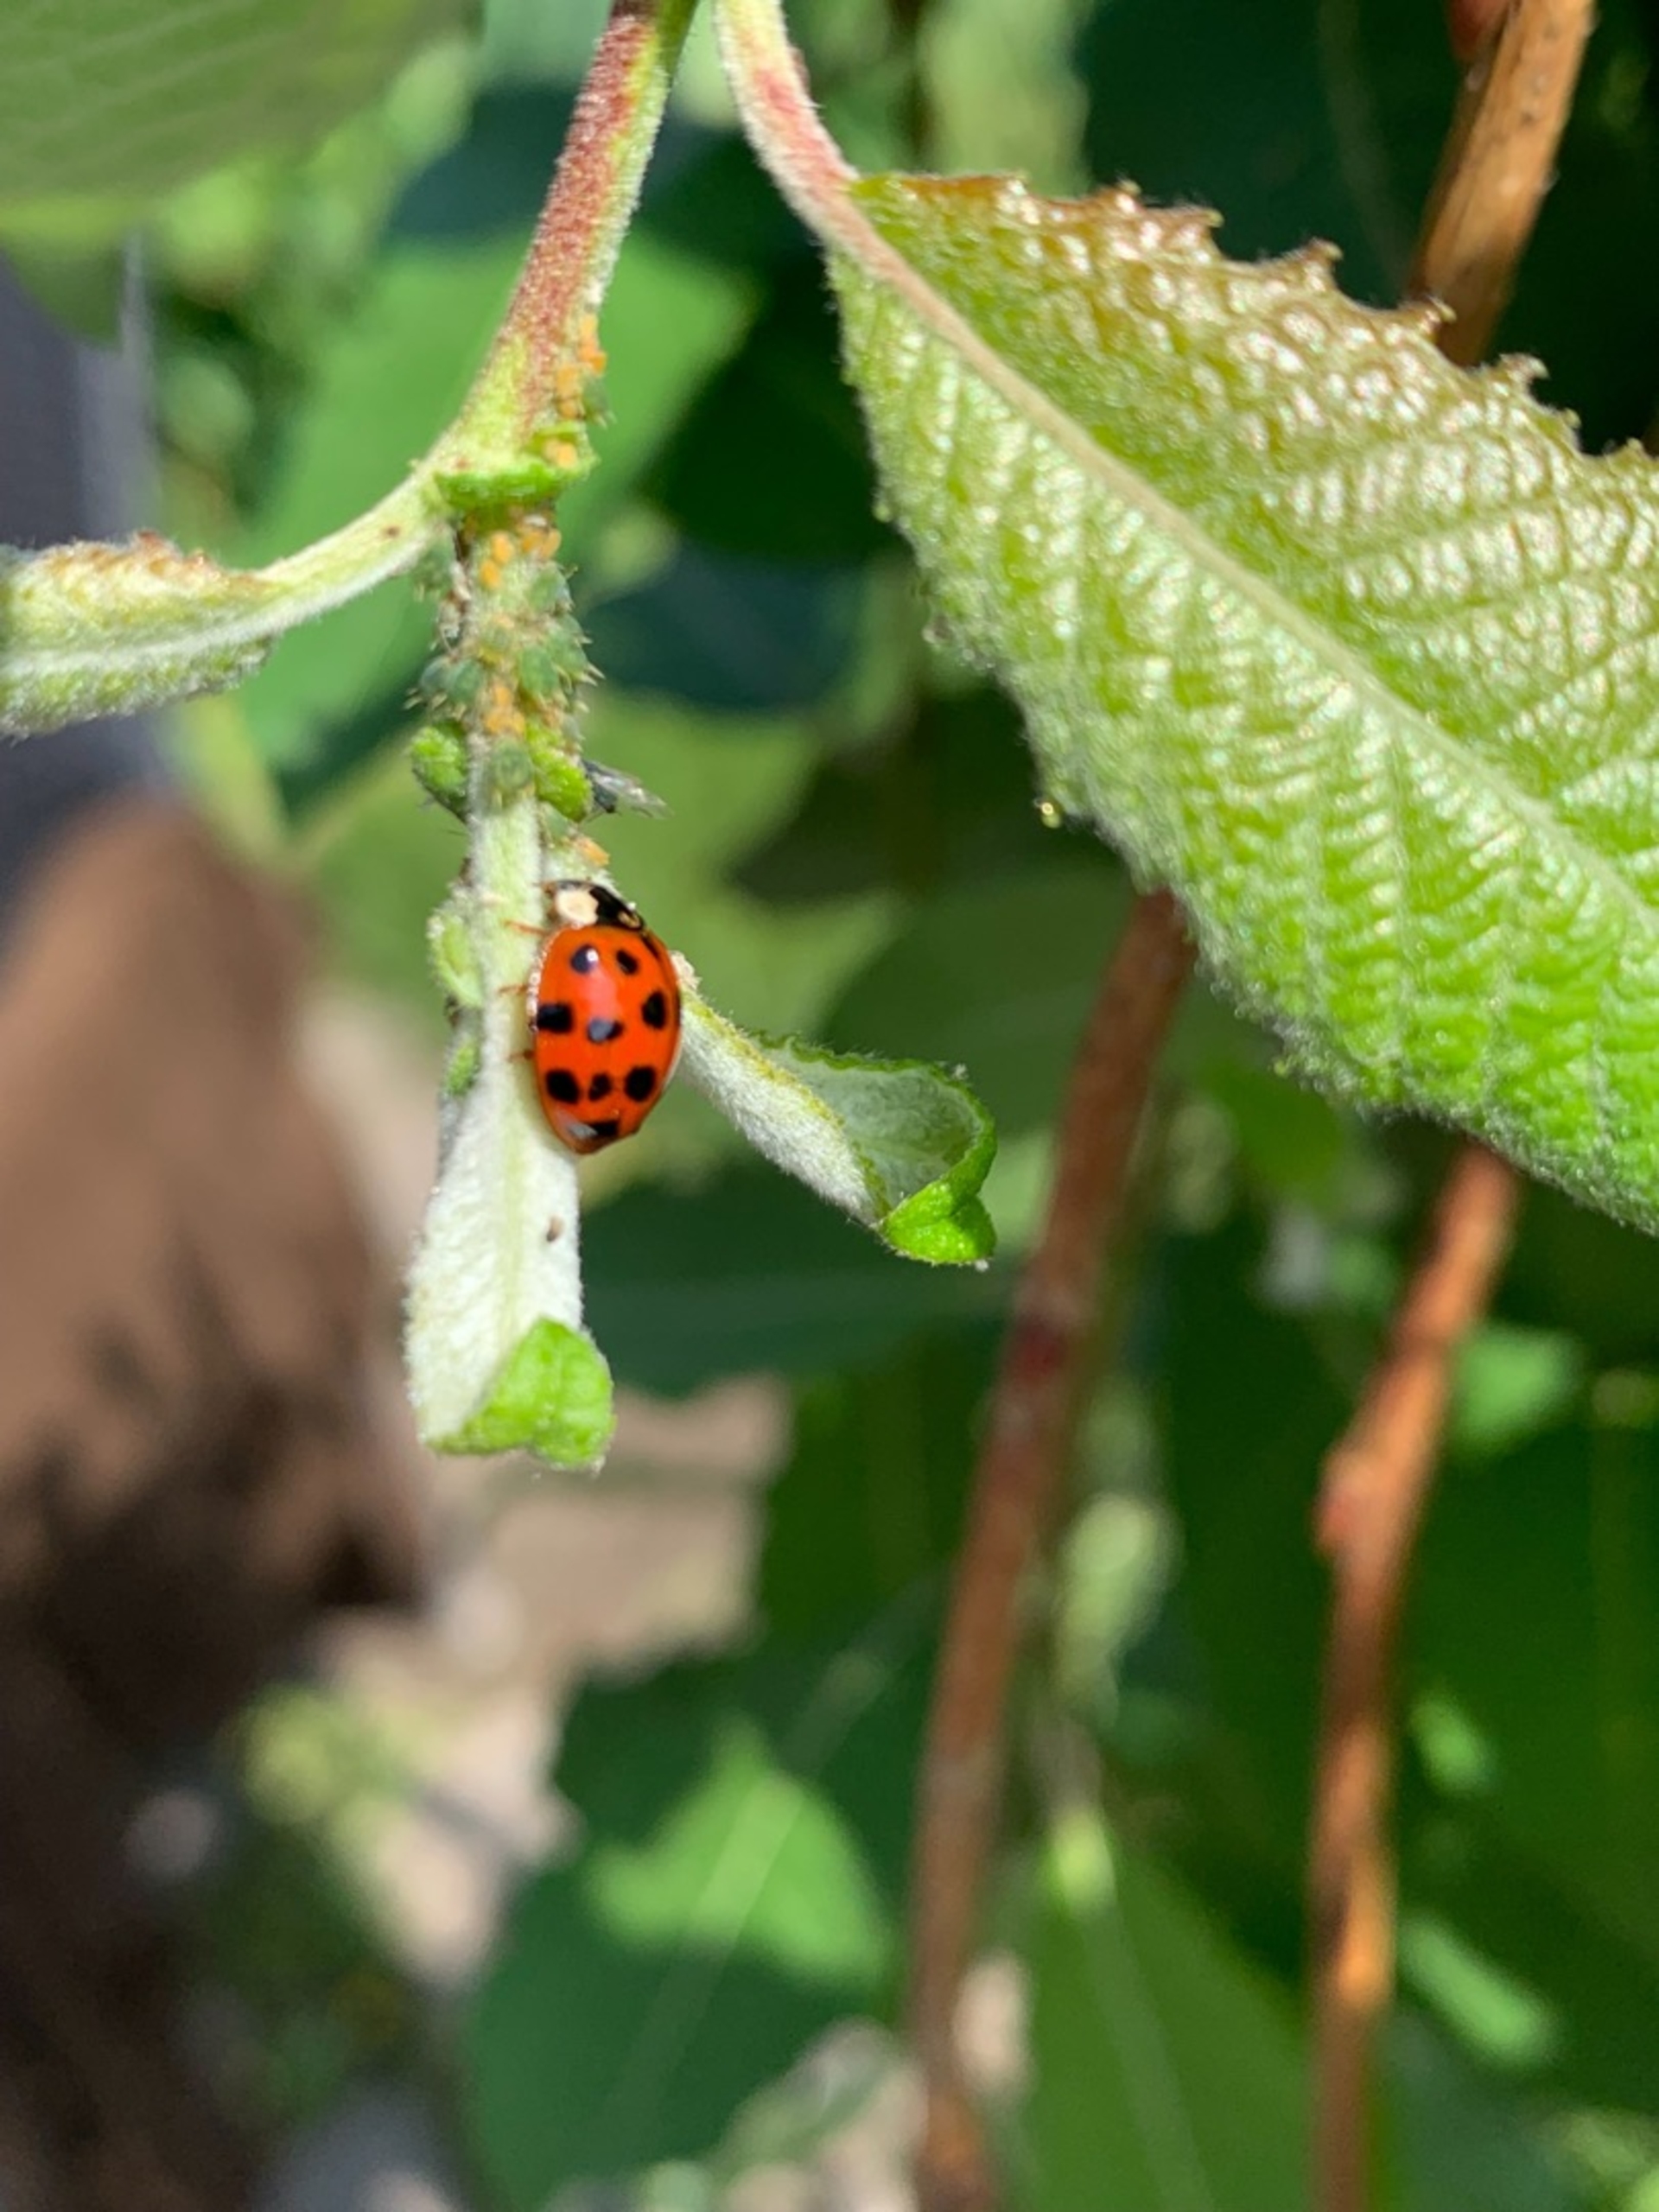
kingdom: Animalia
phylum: Arthropoda
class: Insecta
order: Coleoptera
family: Coccinellidae
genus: Harmonia
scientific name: Harmonia axyridis
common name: Harlekinmariehøne
